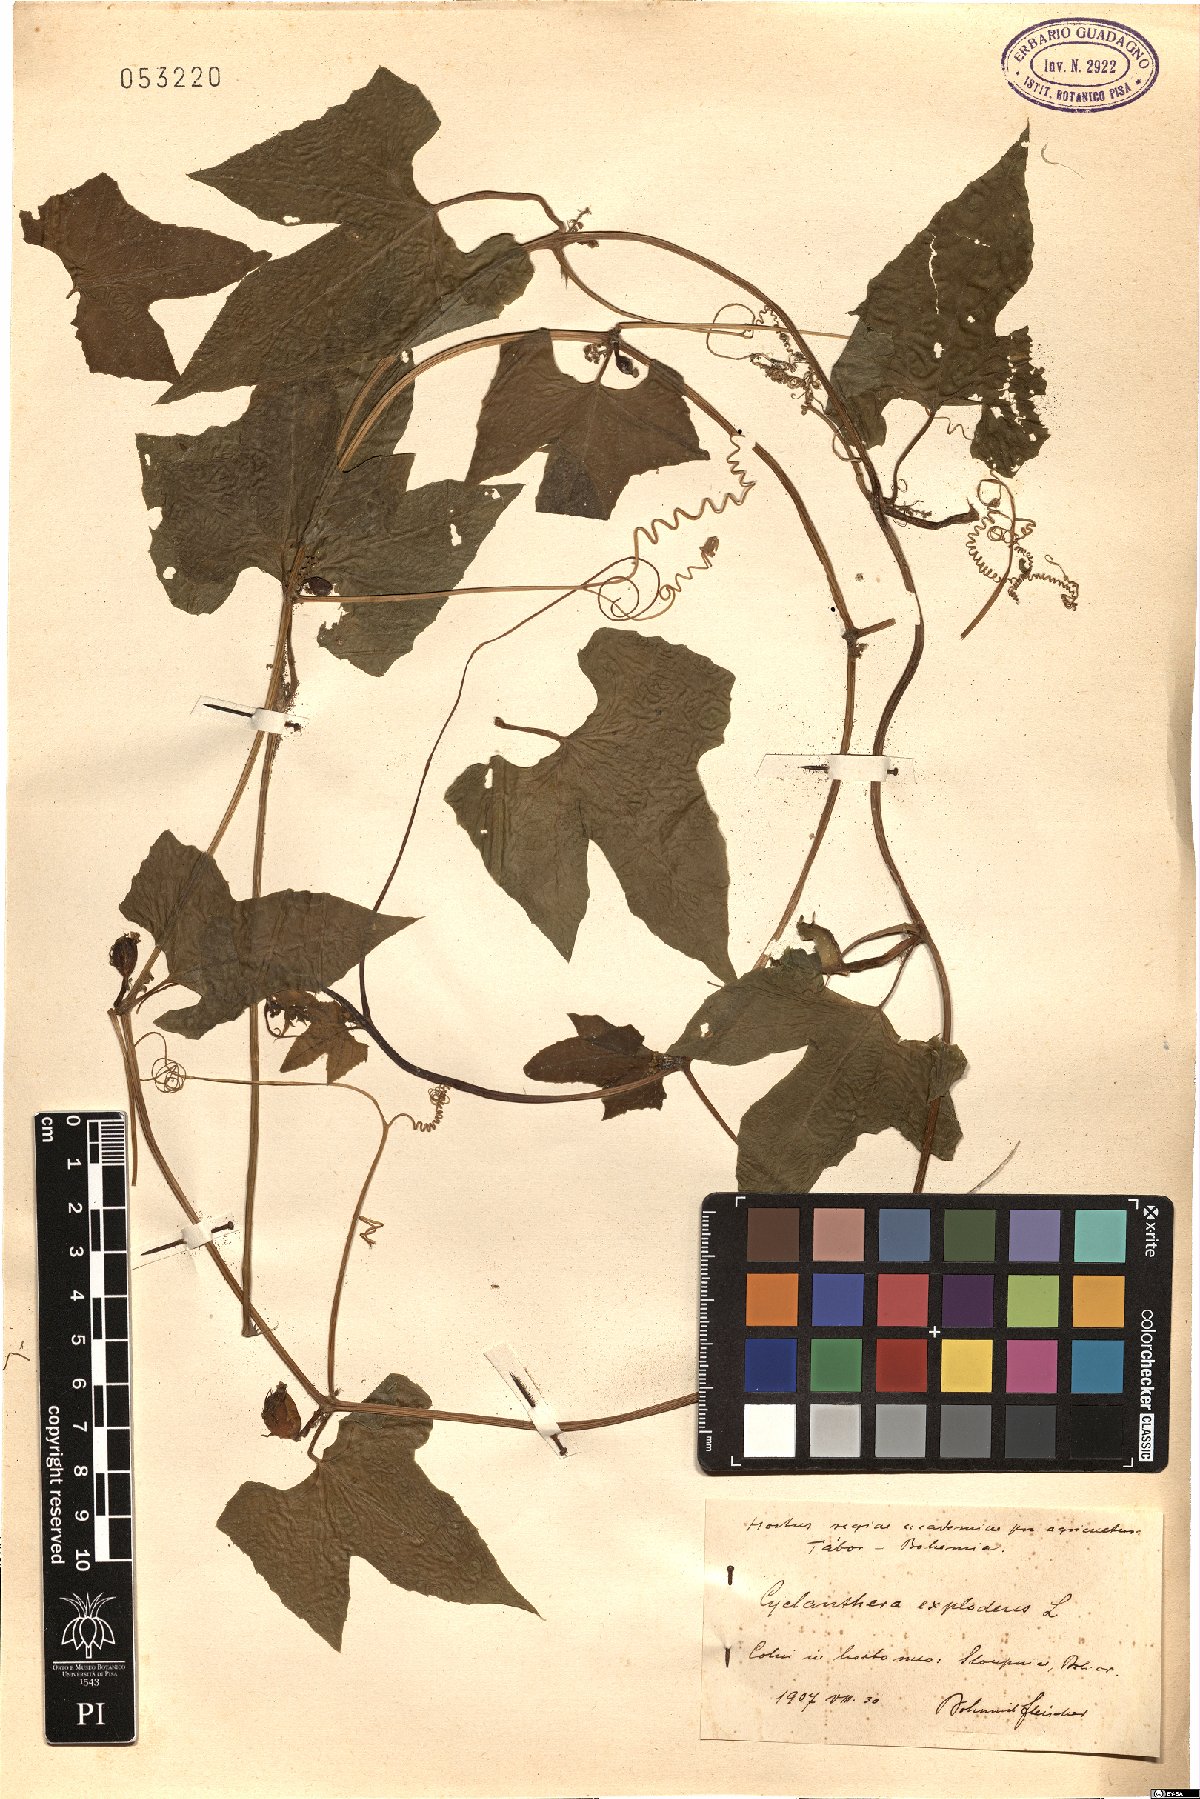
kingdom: Plantae
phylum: Tracheophyta
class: Magnoliopsida
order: Cucurbitales
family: Cucurbitaceae
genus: Cyclanthera
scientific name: Cyclanthera brachystachya
